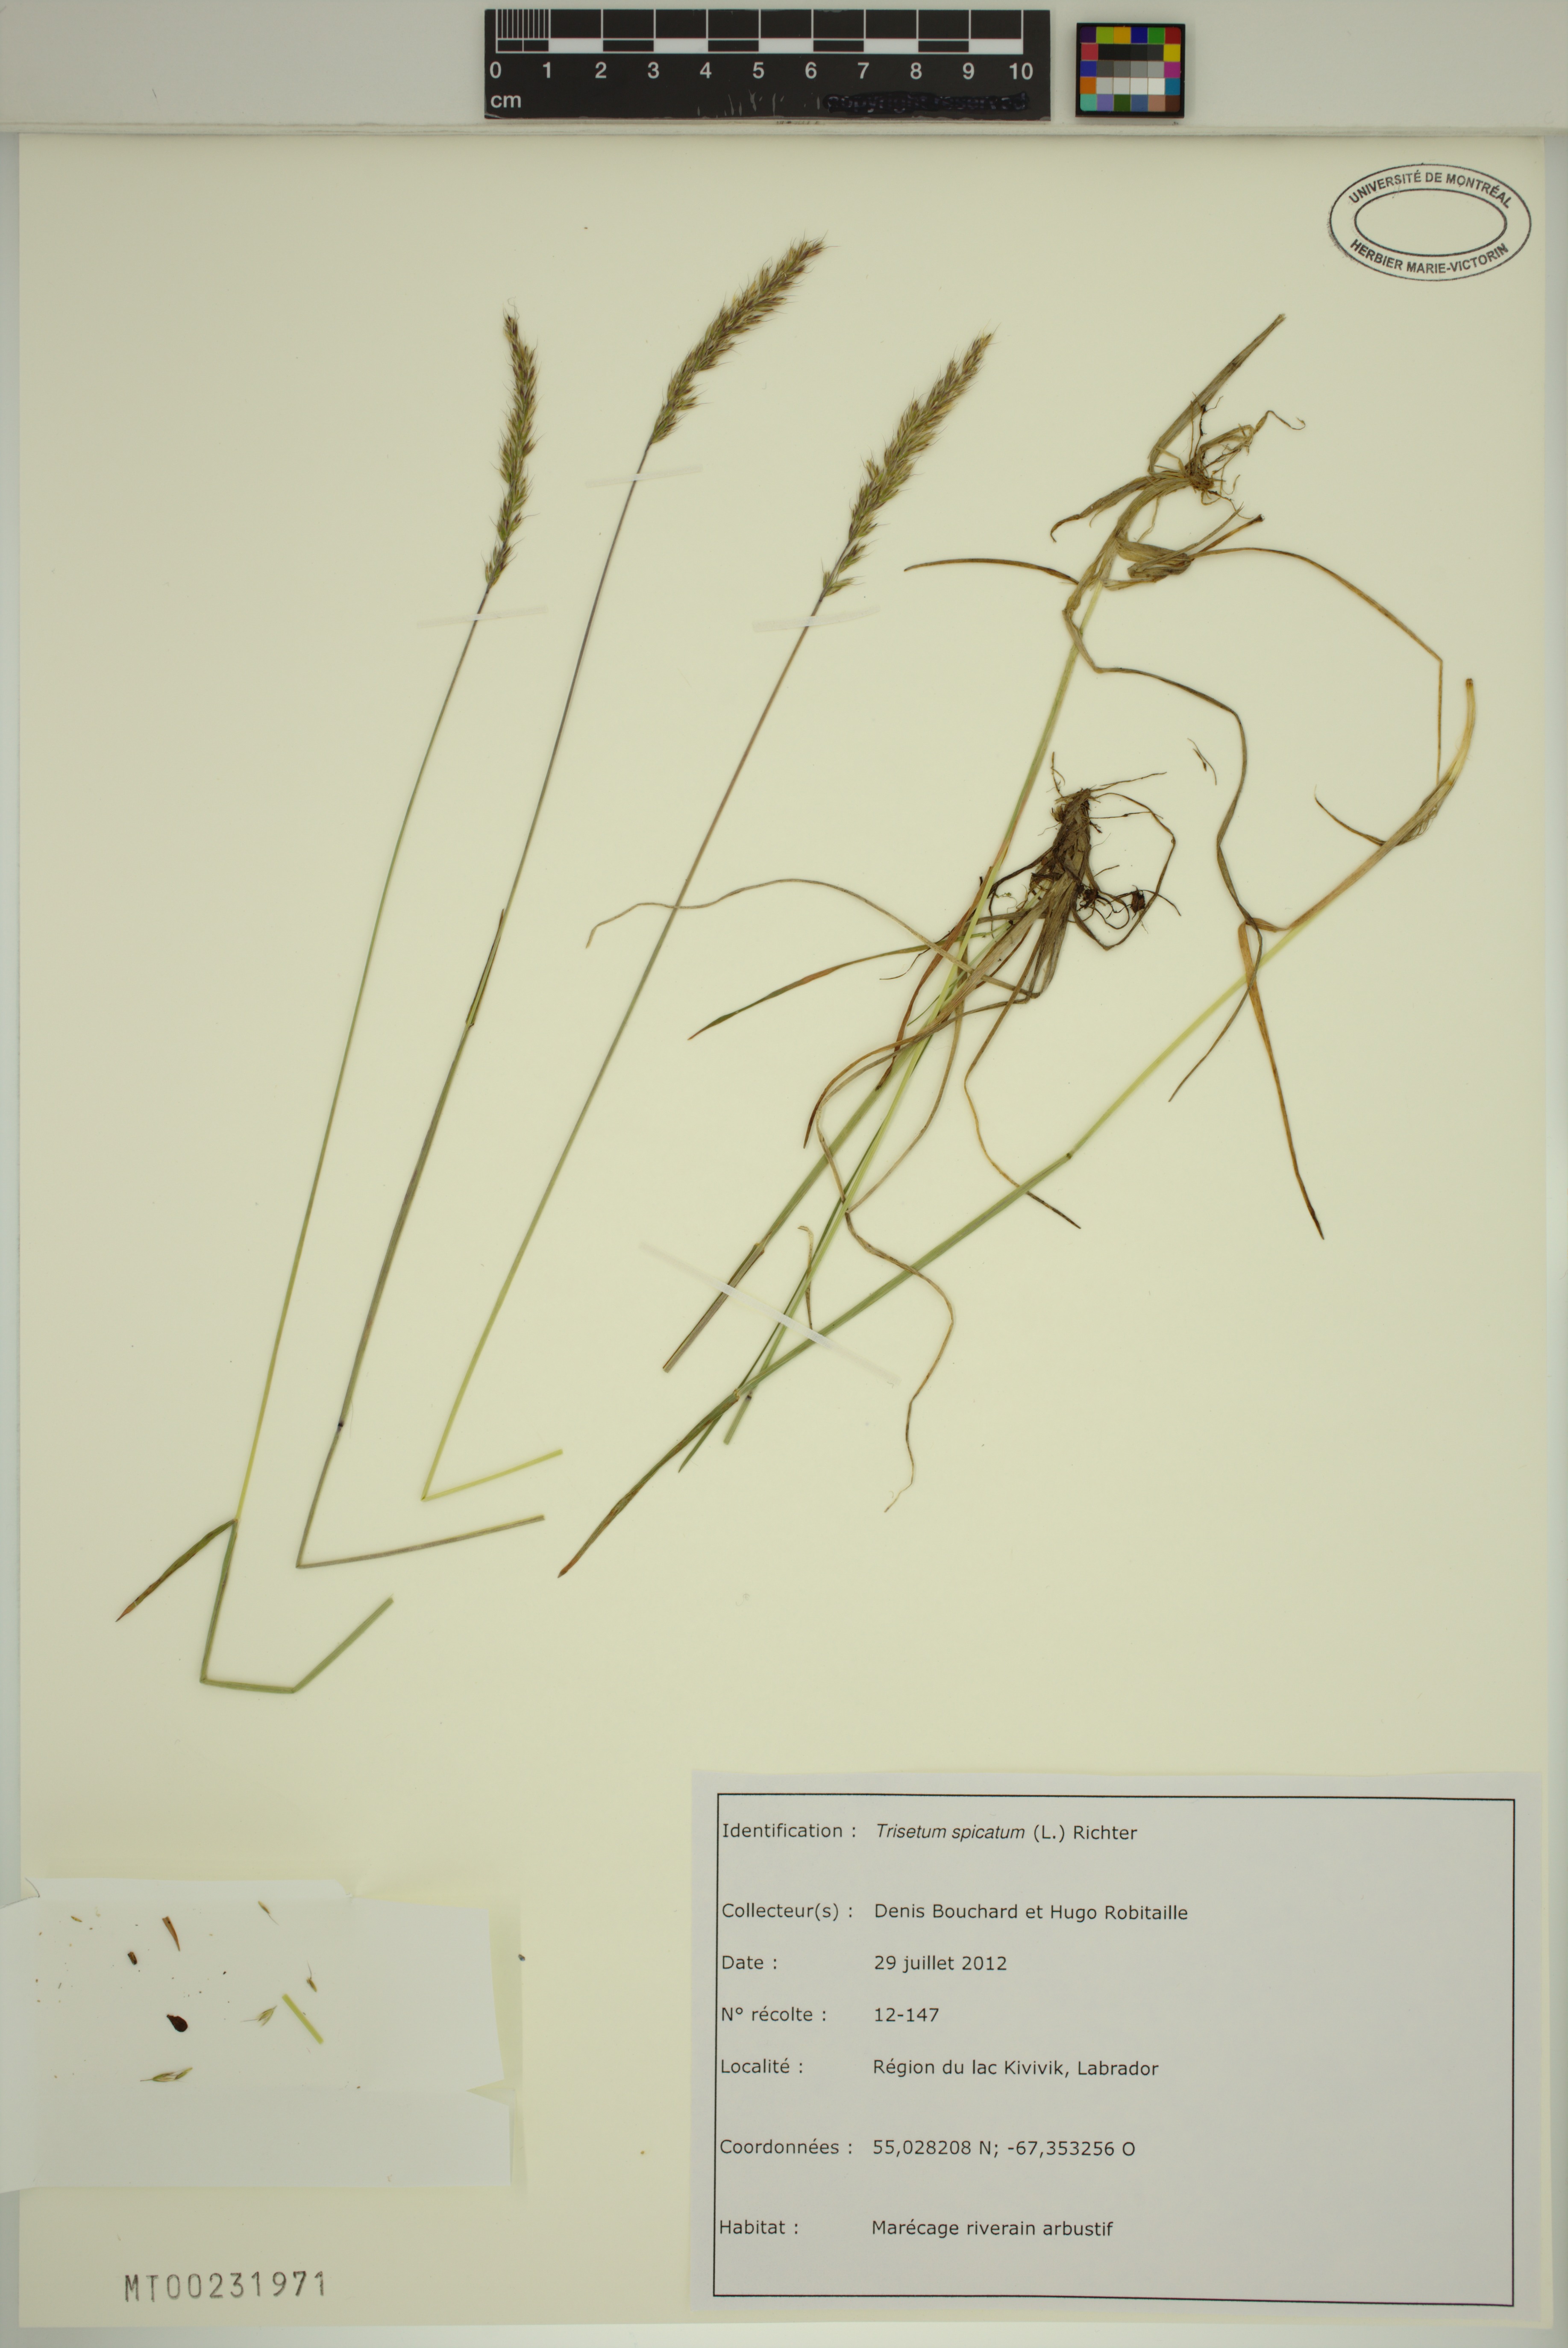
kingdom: Plantae
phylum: Tracheophyta
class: Liliopsida
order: Poales
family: Poaceae
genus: Koeleria
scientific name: Koeleria spicata
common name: Mountain trisetum
